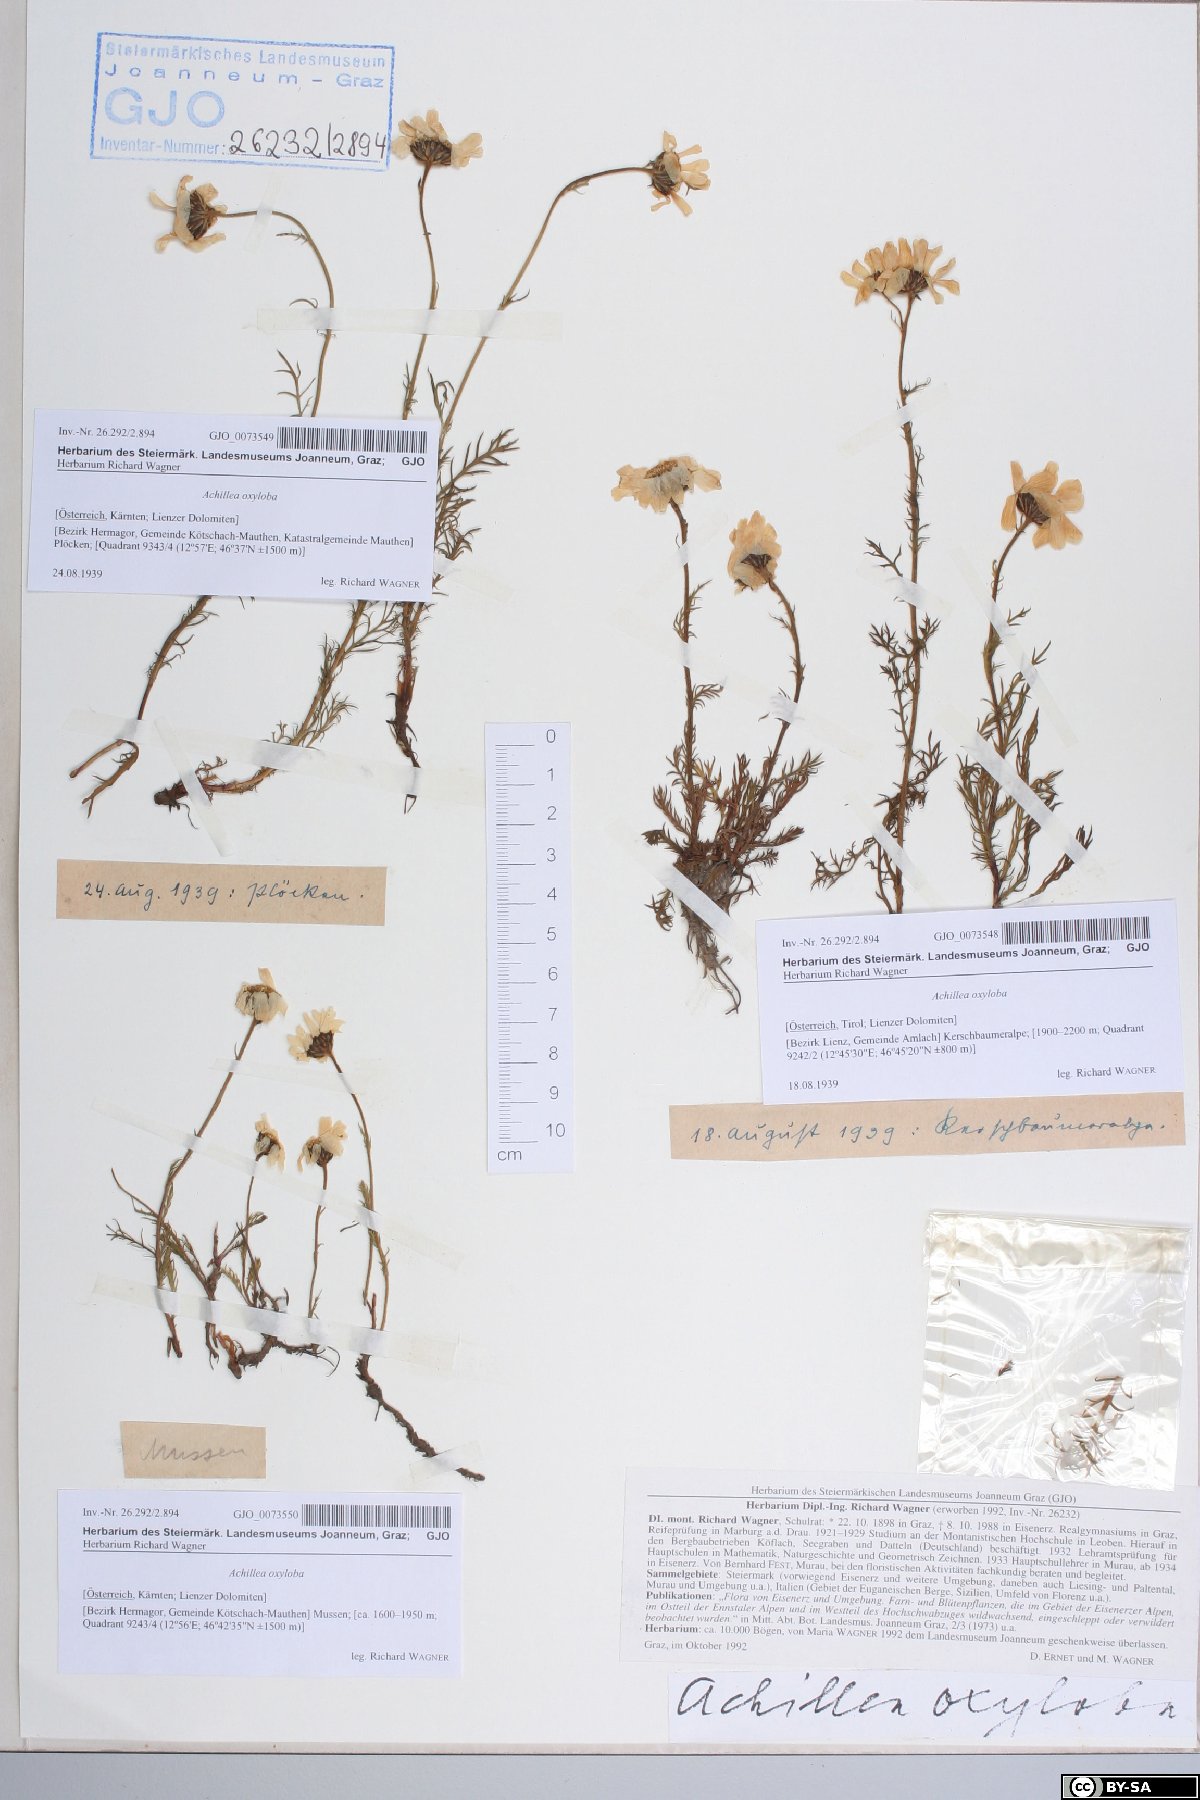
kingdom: Plantae
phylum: Tracheophyta
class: Magnoliopsida
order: Asterales
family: Asteraceae
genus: Achillea
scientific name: Achillea oxyloba
